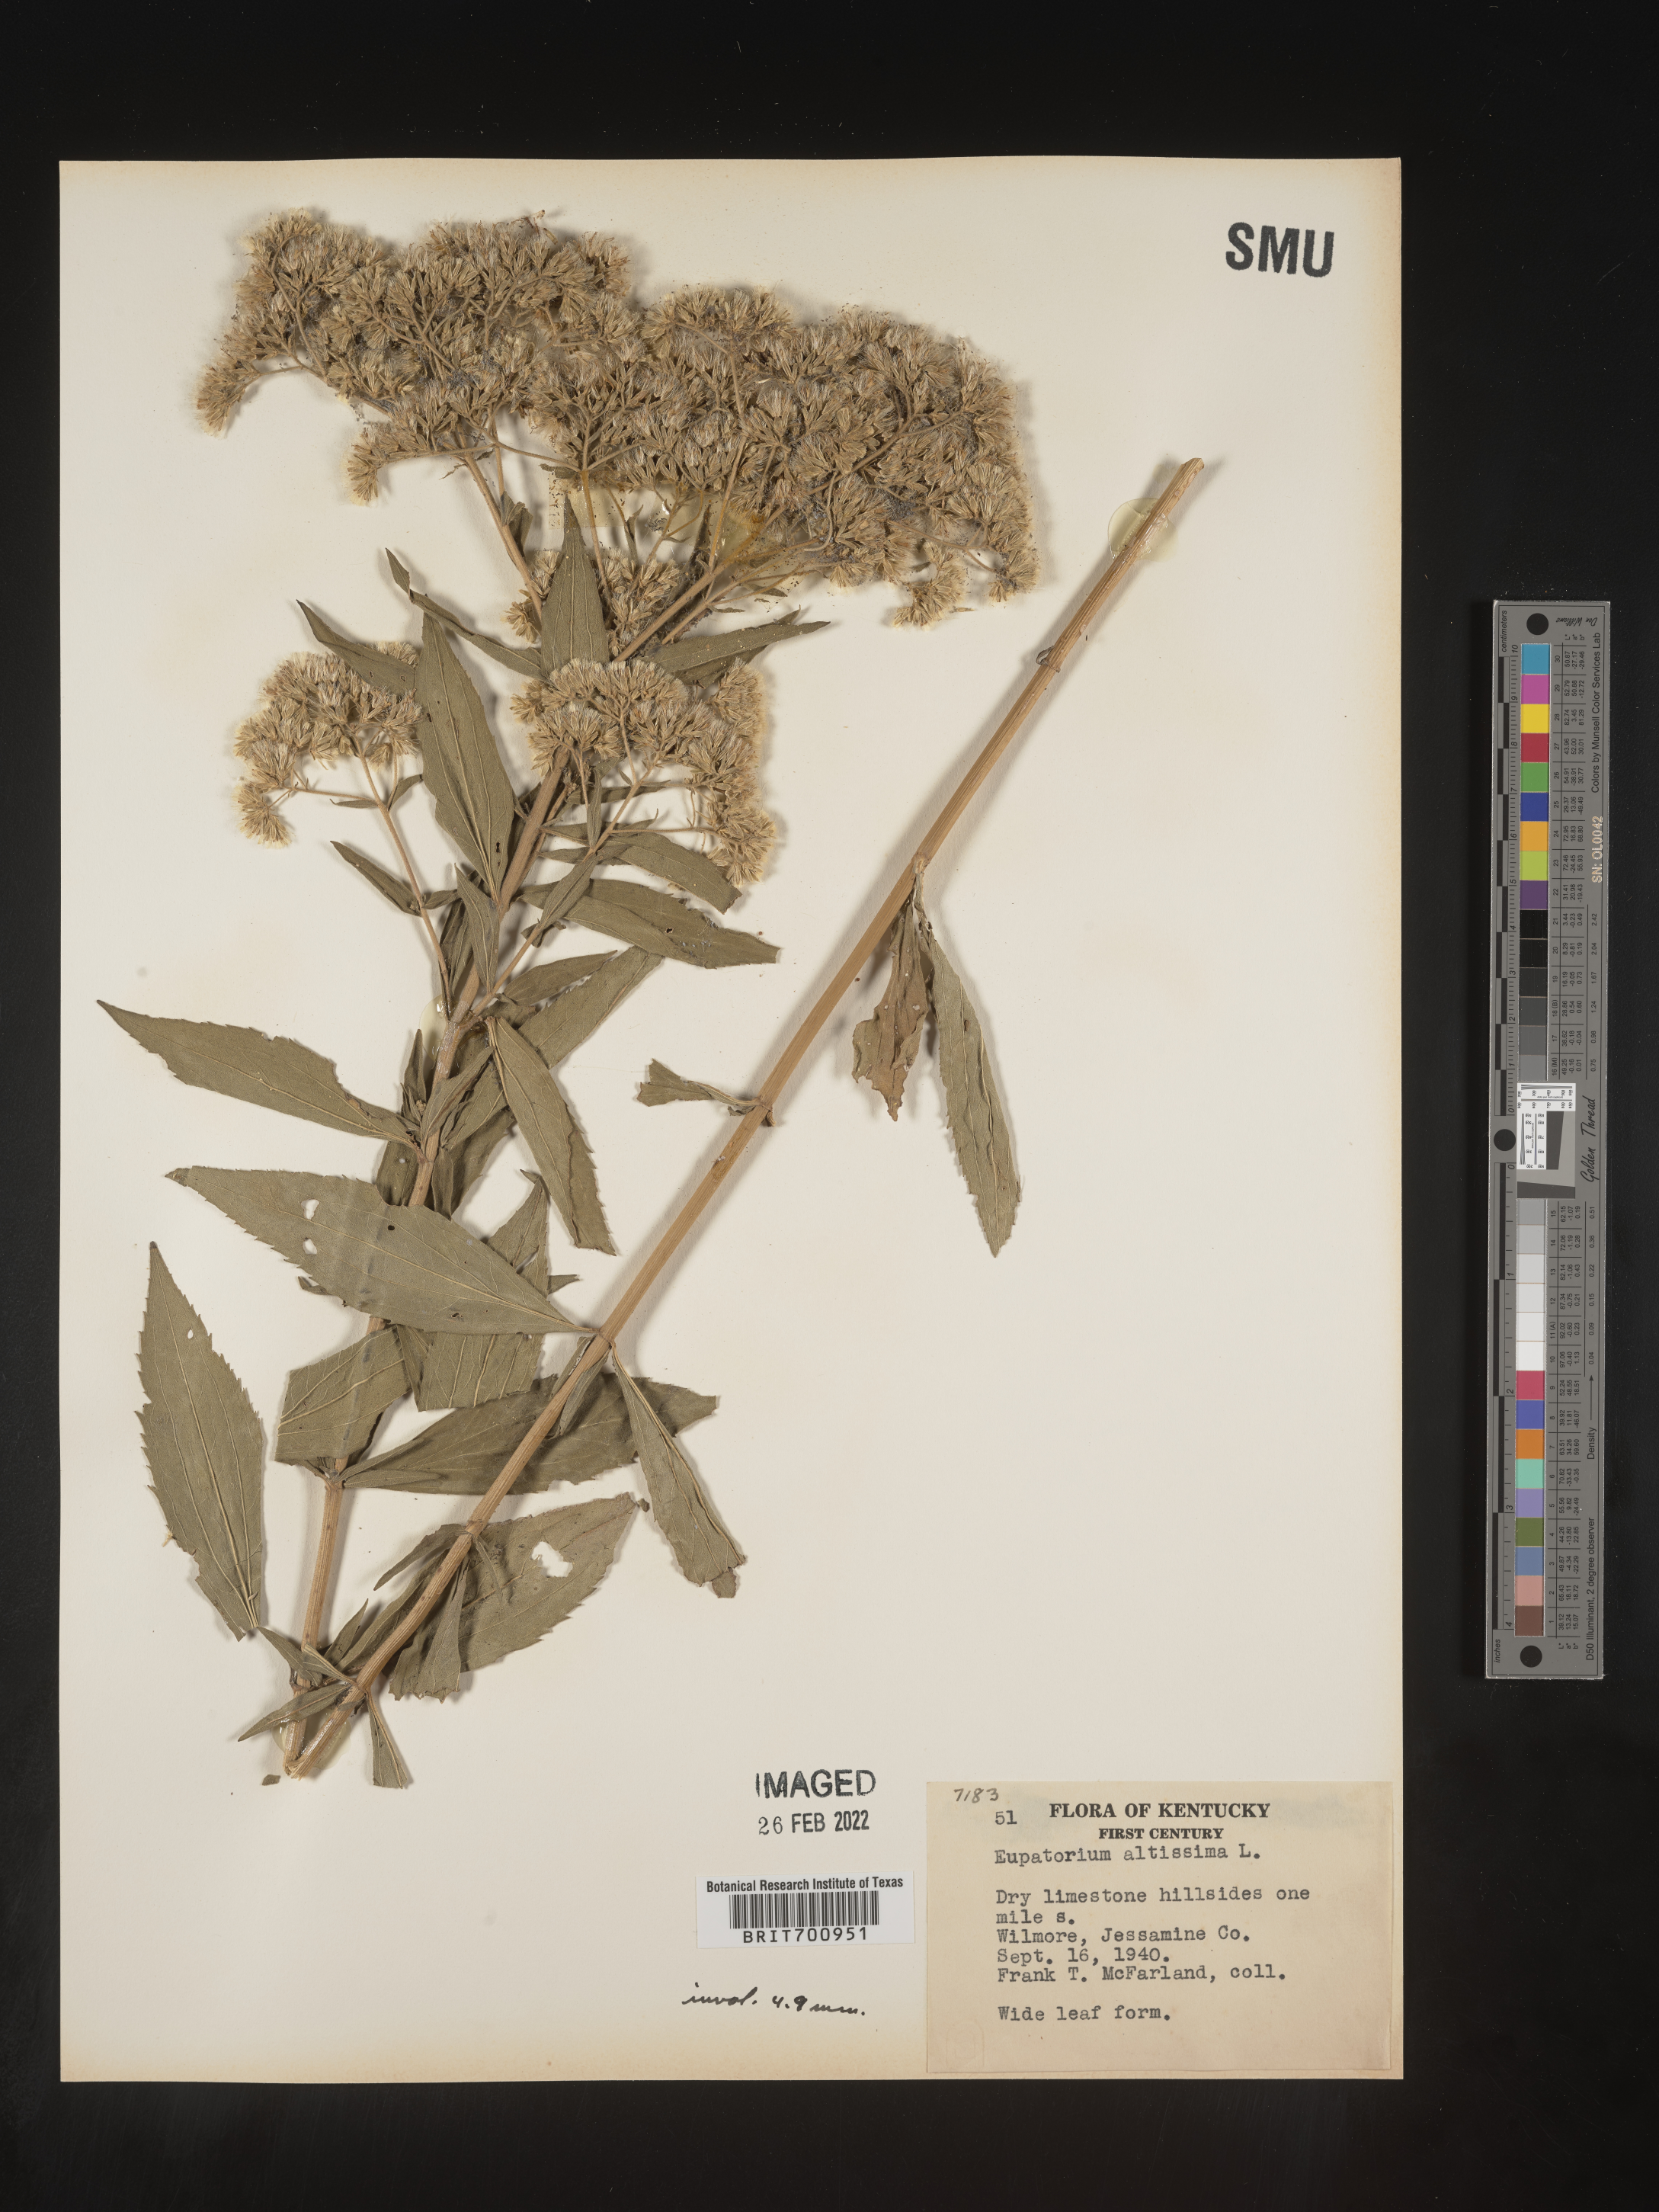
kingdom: Plantae
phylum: Tracheophyta
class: Magnoliopsida
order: Asterales
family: Asteraceae
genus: Eupatorium
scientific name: Eupatorium altissimum
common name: Tall thoroughwort
